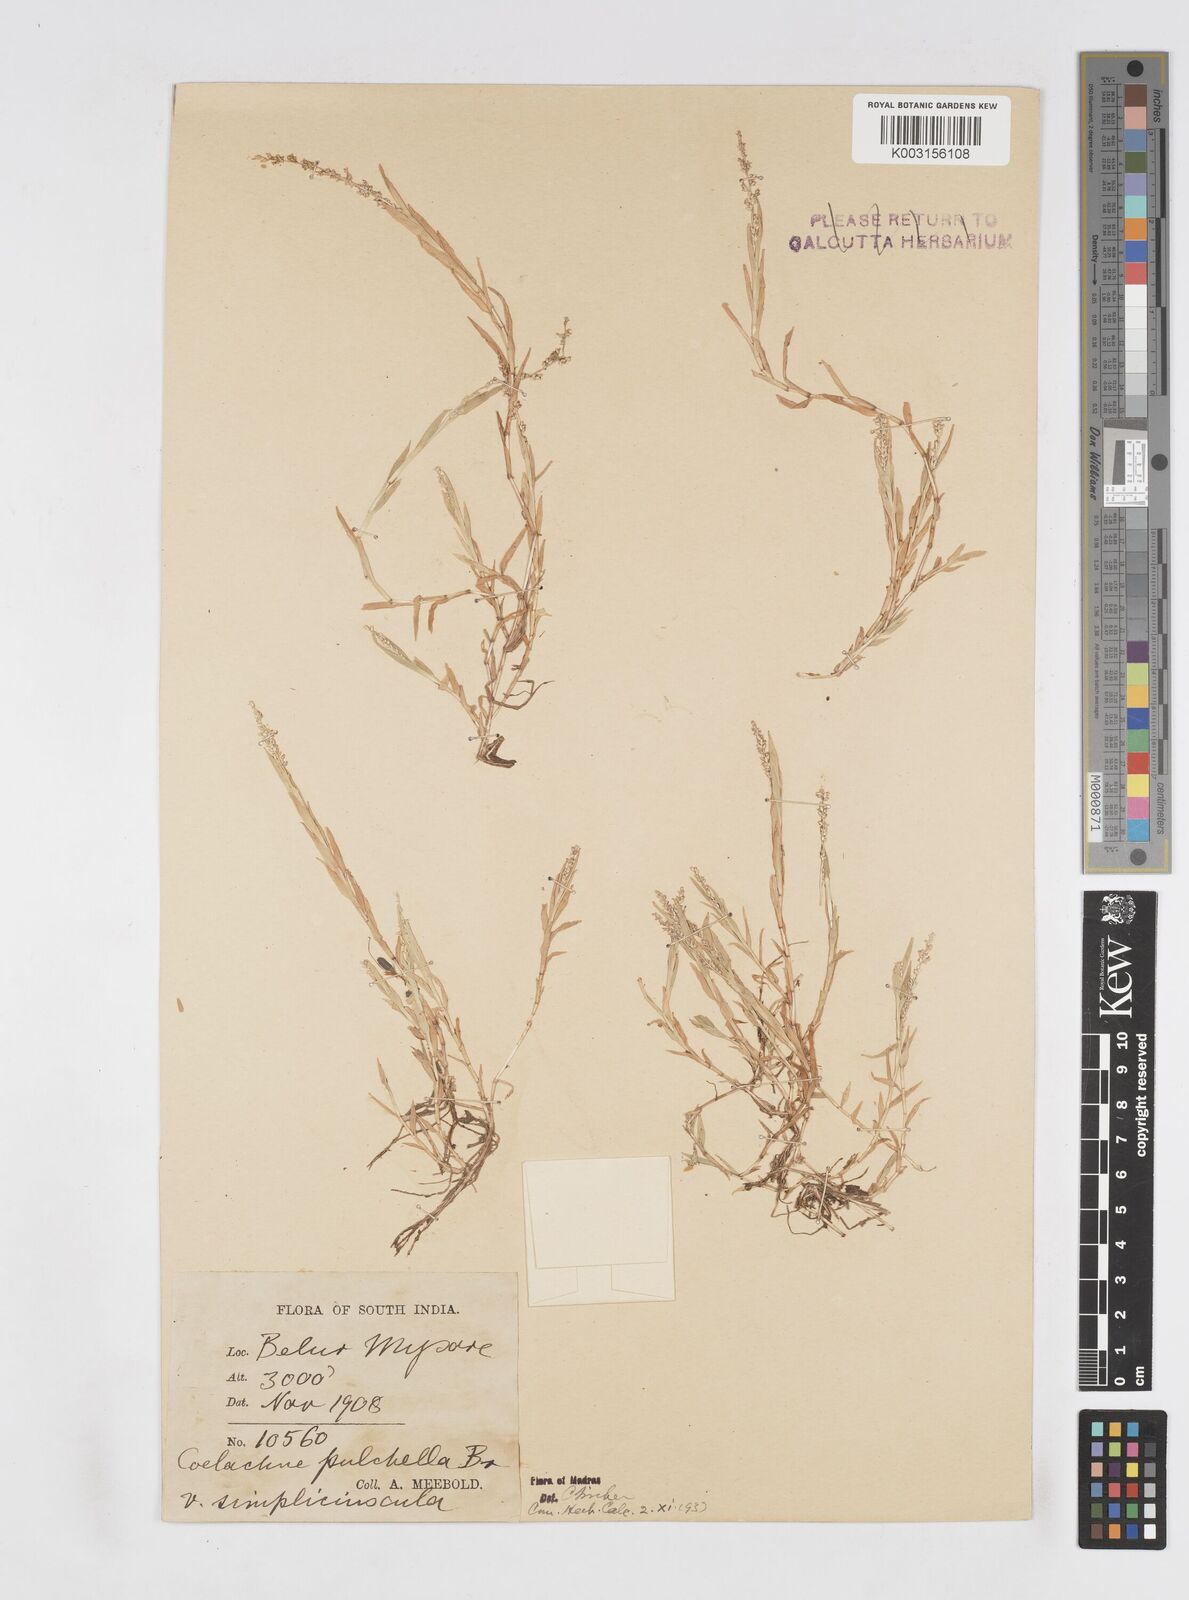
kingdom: Plantae
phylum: Tracheophyta
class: Liliopsida
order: Poales
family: Poaceae
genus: Coelachne
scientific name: Coelachne simpliciuscula
